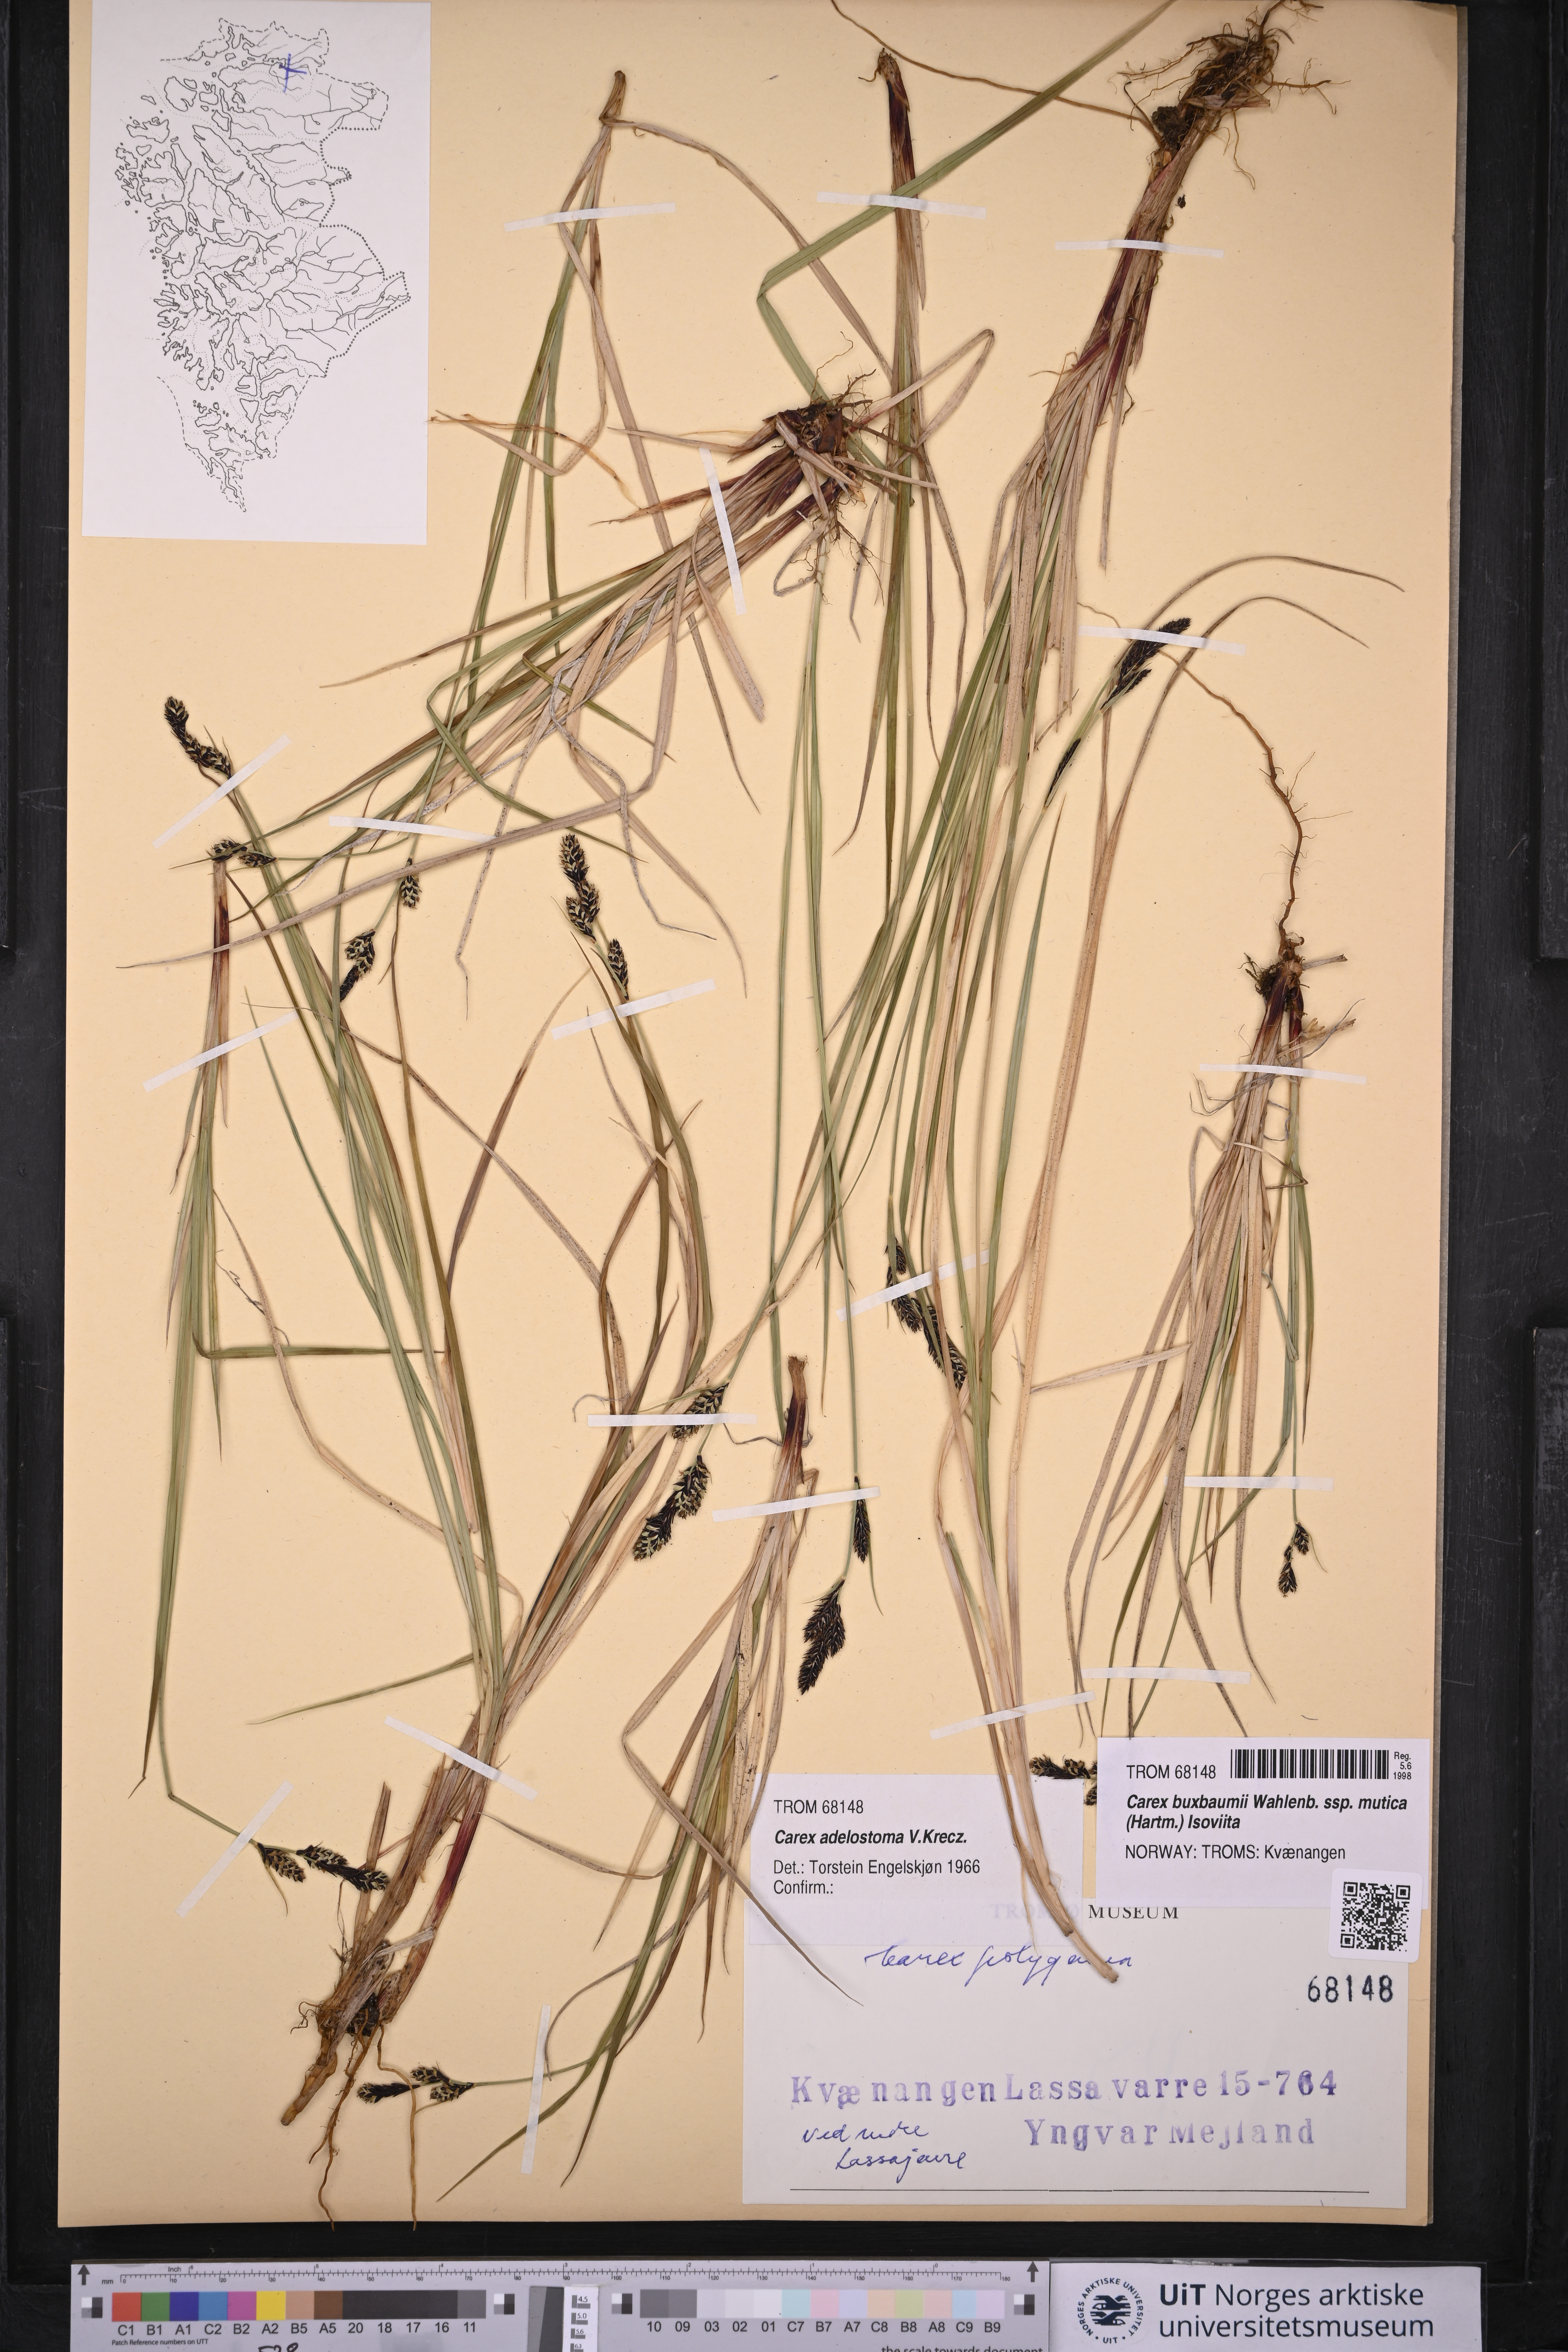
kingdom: Plantae
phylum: Tracheophyta
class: Liliopsida
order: Poales
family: Cyperaceae
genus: Carex
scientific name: Carex adelostoma
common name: Circumpolar sedge
